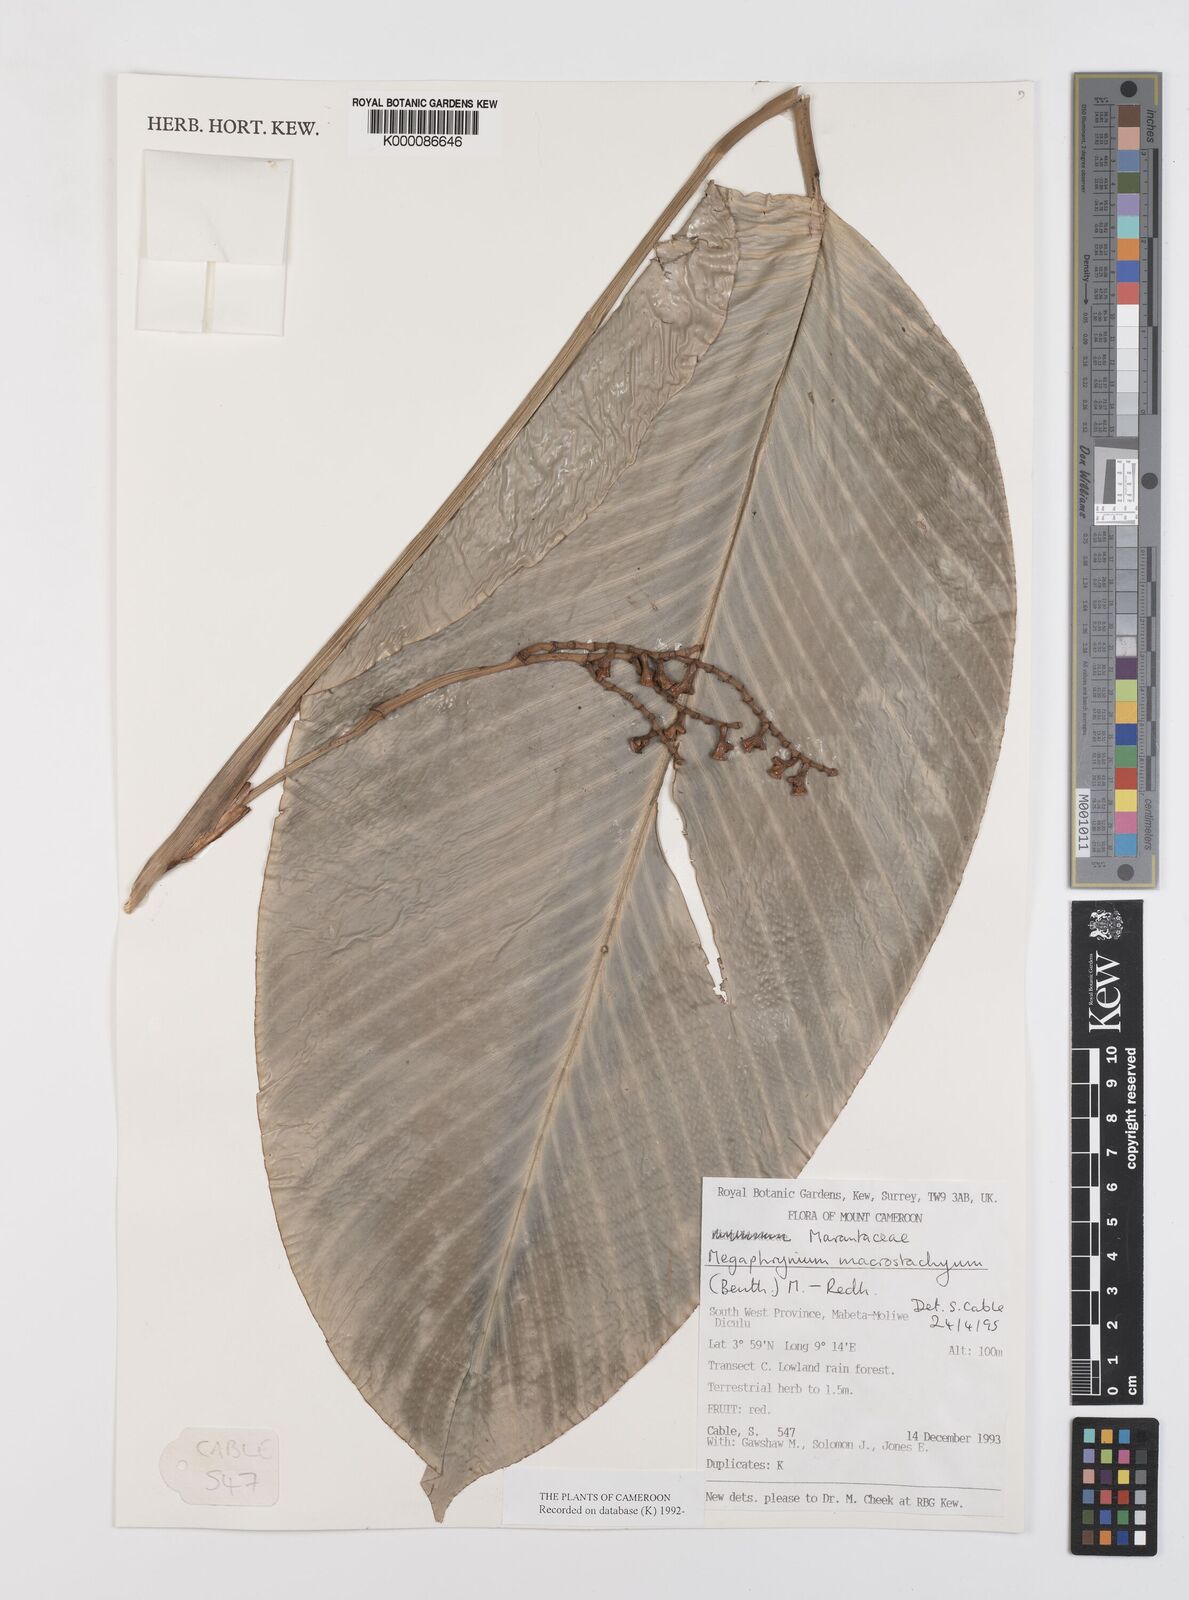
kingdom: Plantae
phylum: Tracheophyta
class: Liliopsida
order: Zingiberales
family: Marantaceae
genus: Megaphrynium
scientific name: Megaphrynium macrostachyum
